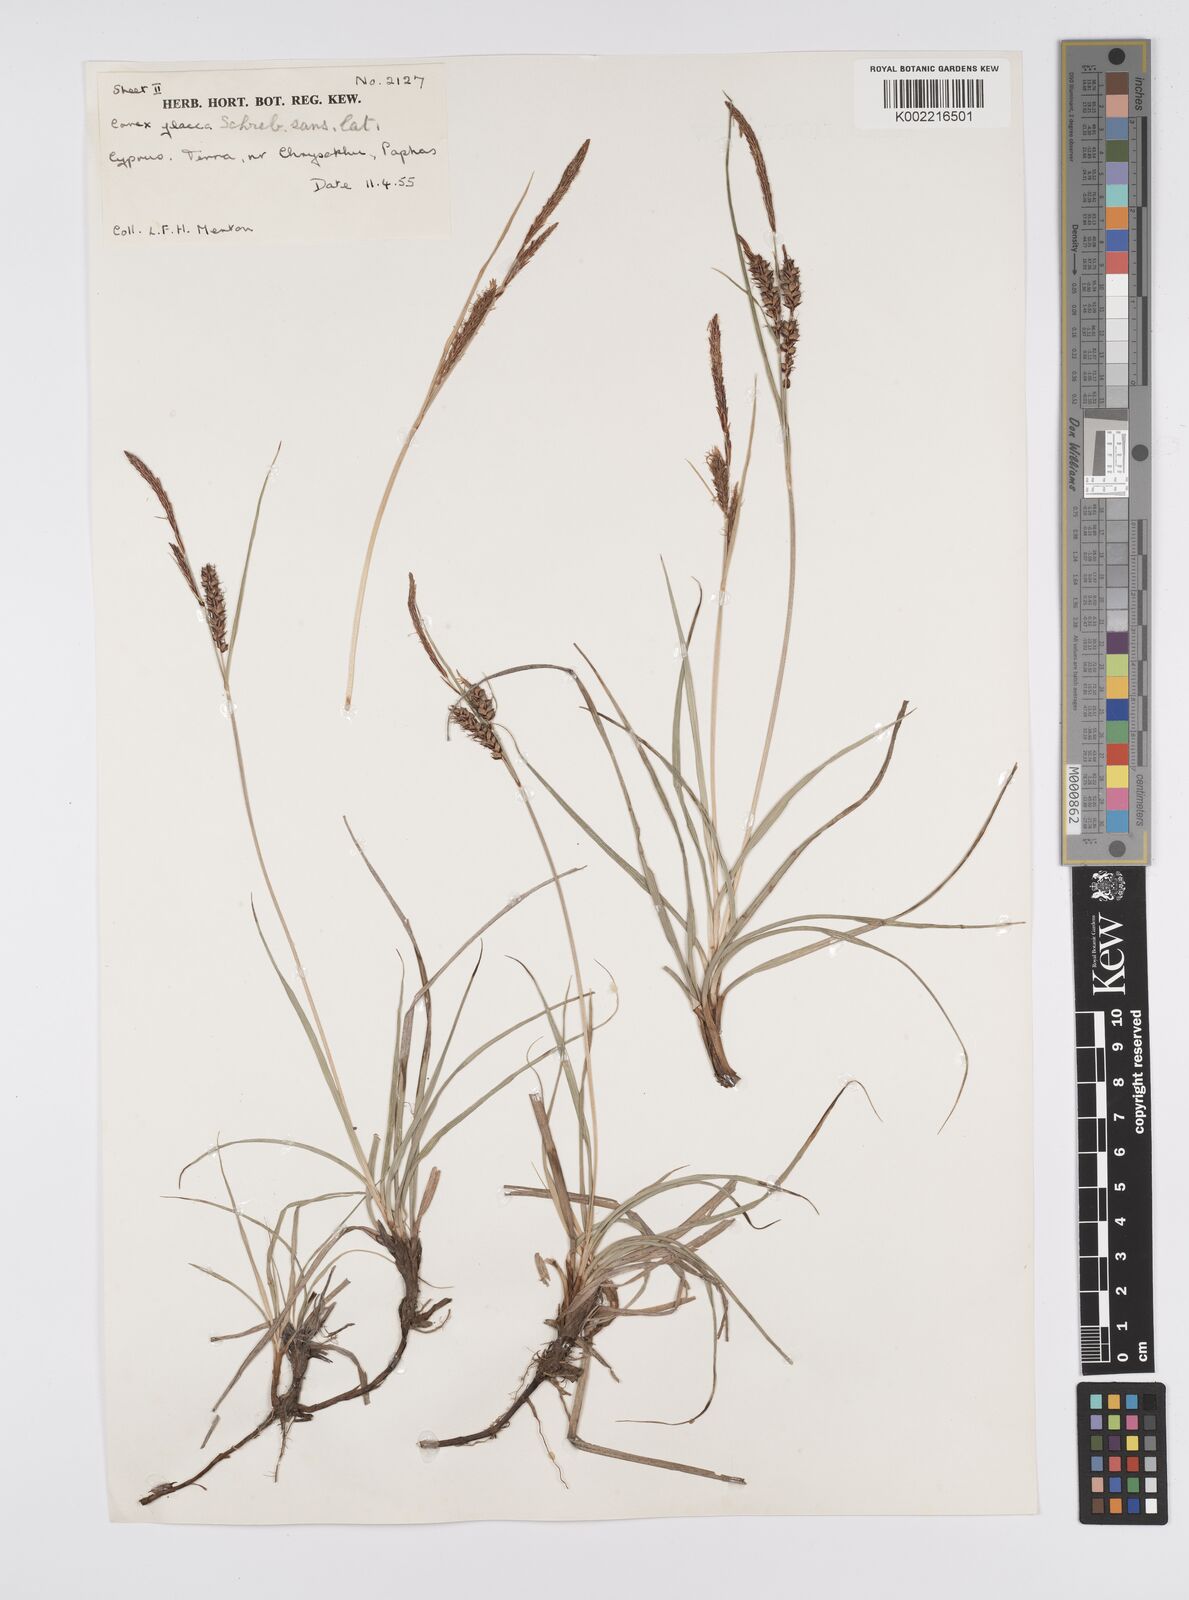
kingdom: Plantae
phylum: Tracheophyta
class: Liliopsida
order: Poales
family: Cyperaceae
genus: Carex
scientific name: Carex flacca
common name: Glaucous sedge
